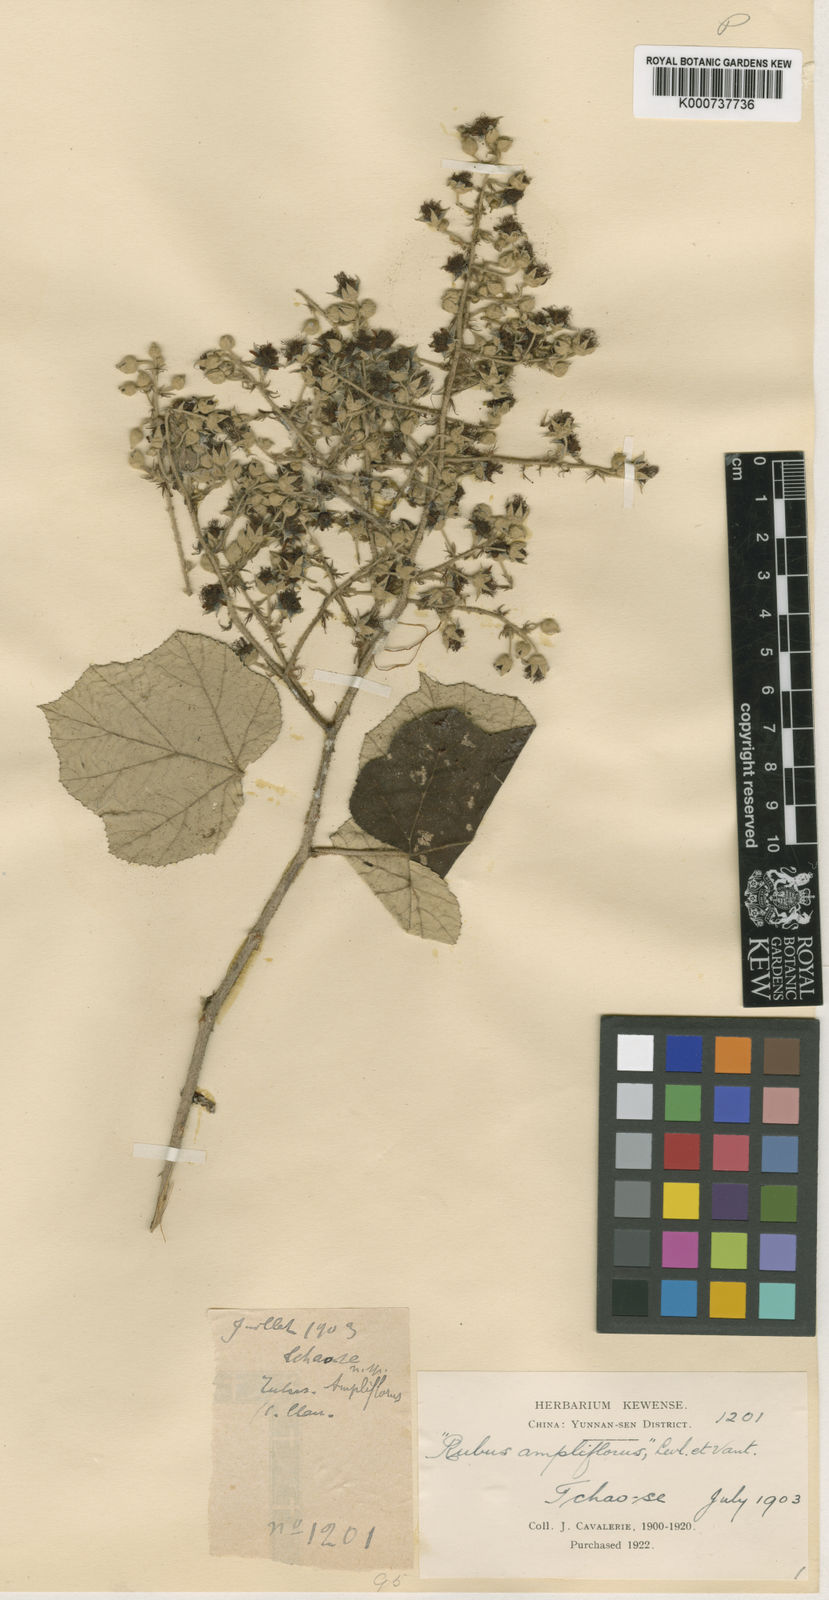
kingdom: Plantae
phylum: Tracheophyta
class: Magnoliopsida
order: Rosales
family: Rosaceae
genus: Rubus
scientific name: Rubus
